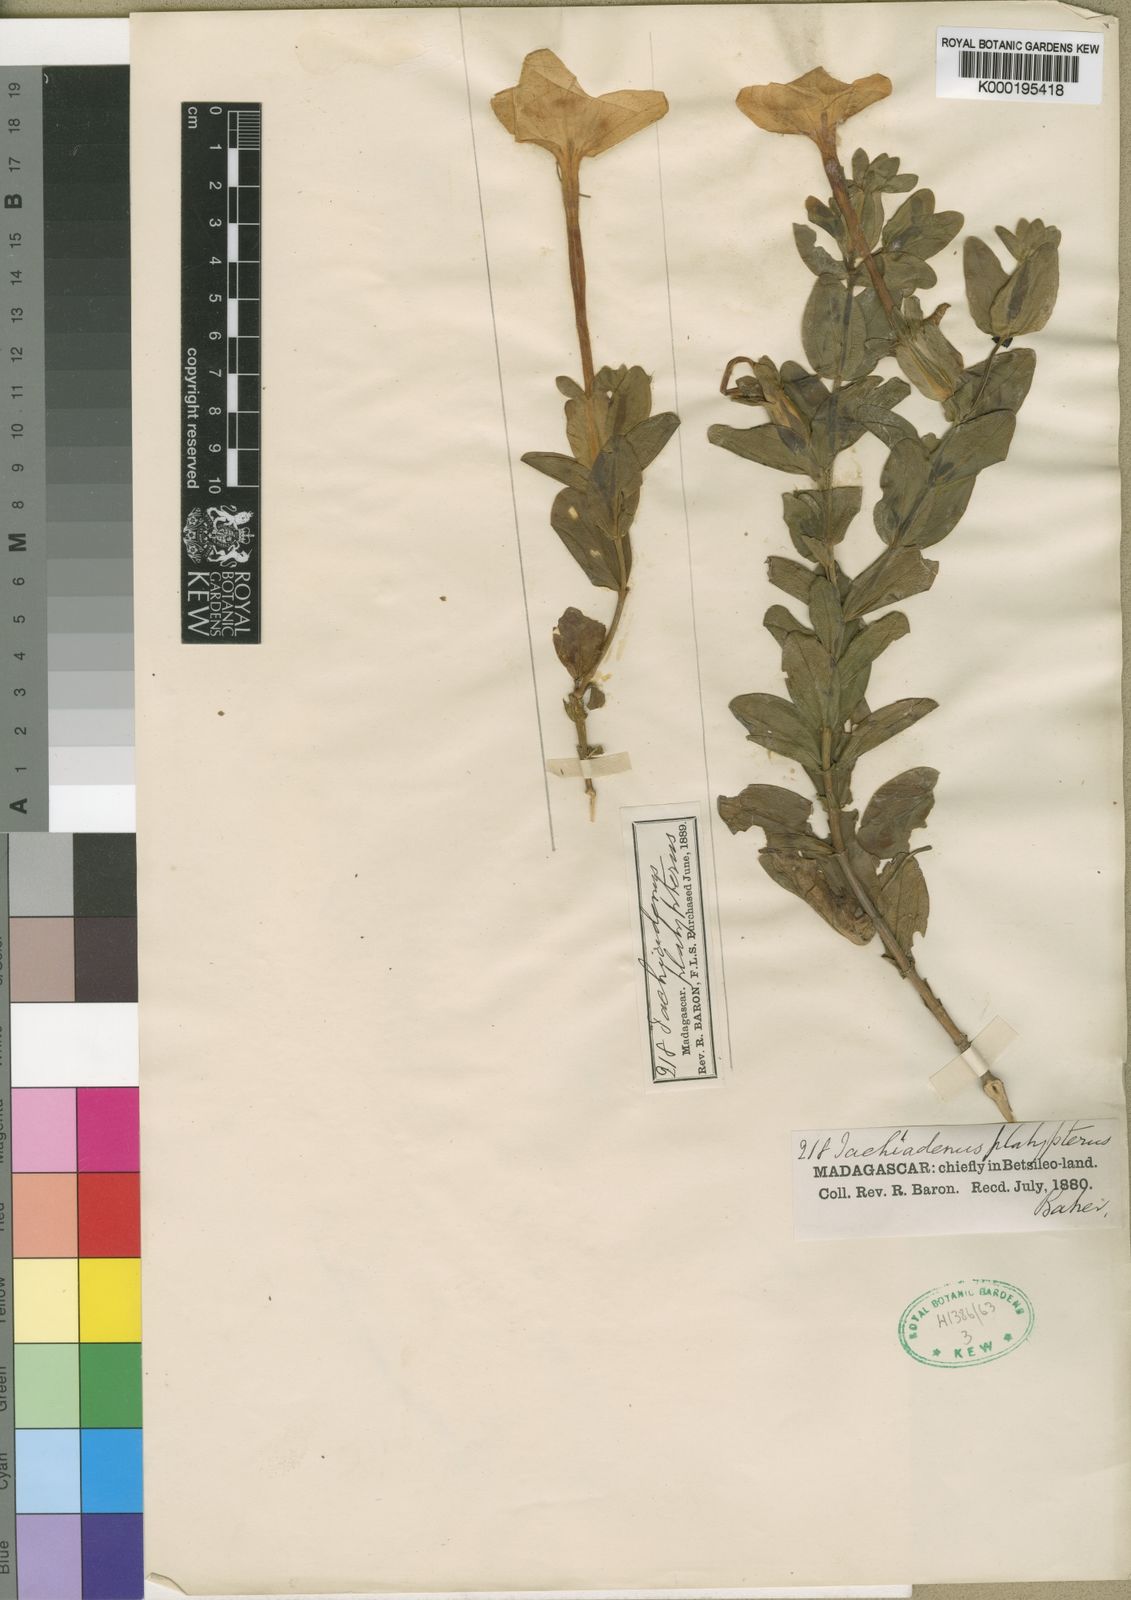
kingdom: Plantae
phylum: Tracheophyta
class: Magnoliopsida
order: Gentianales
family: Gentianaceae
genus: Tachiadenus
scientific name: Tachiadenus platypterus
